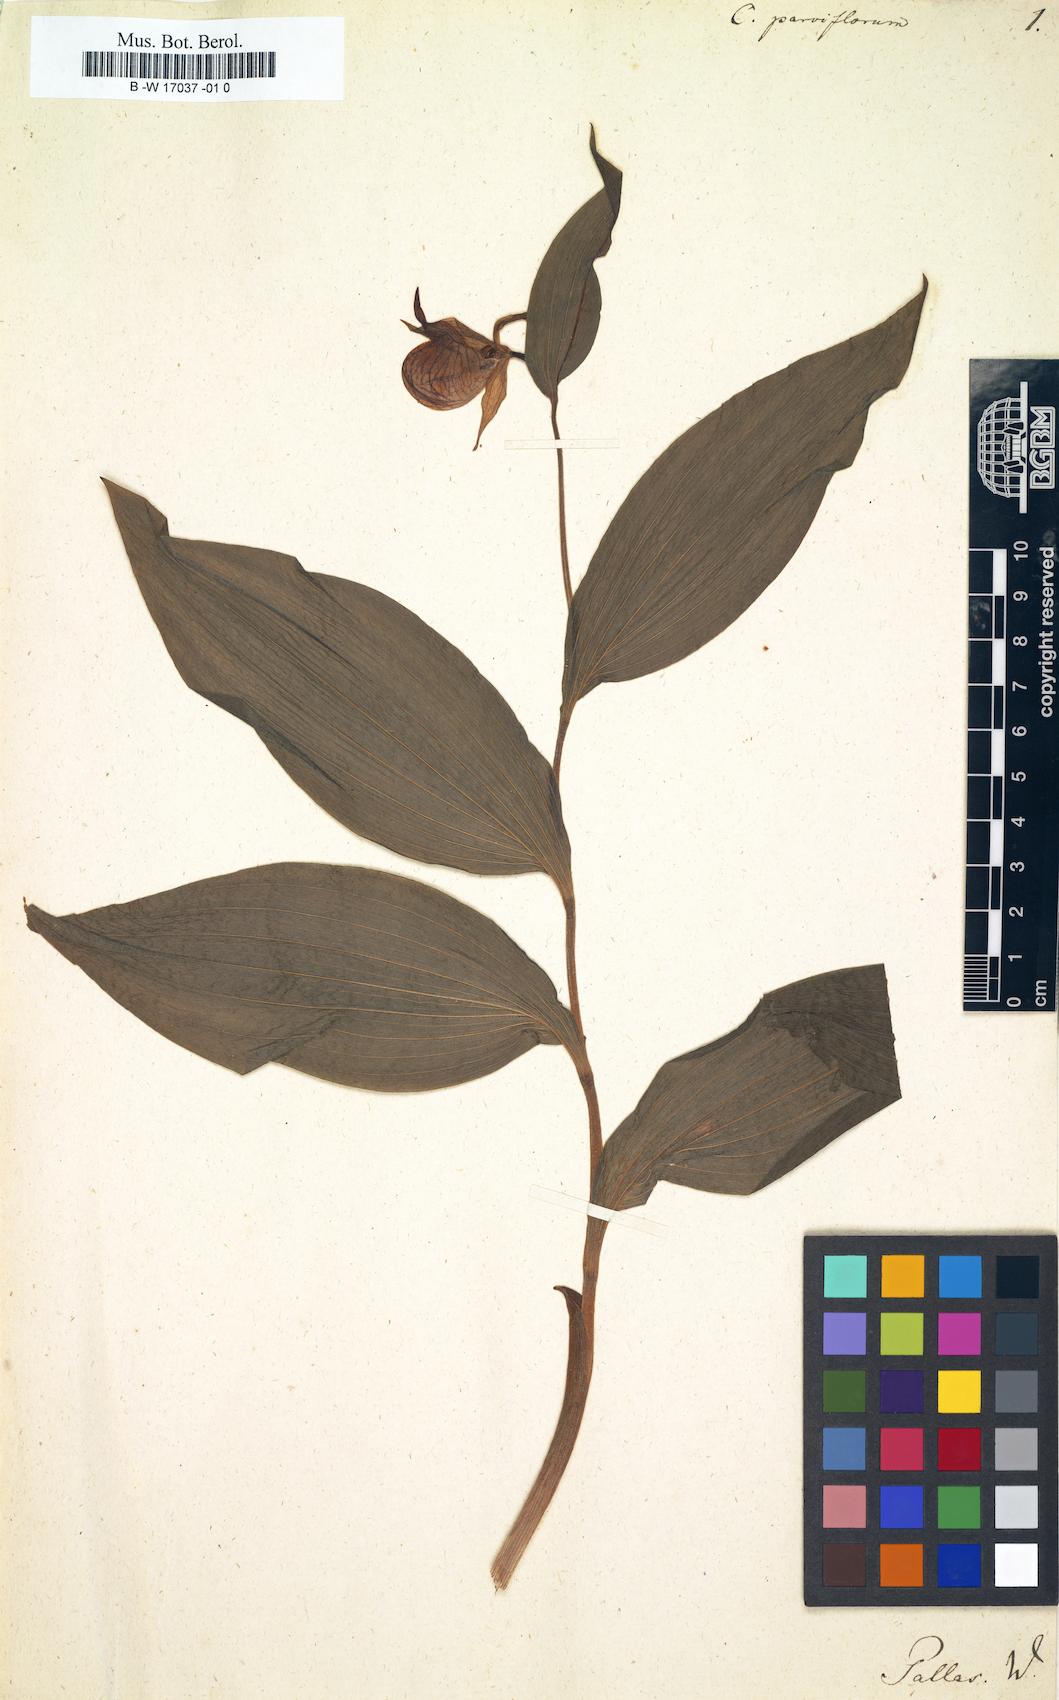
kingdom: Plantae
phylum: Tracheophyta
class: Liliopsida
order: Asparagales
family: Orchidaceae
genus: Cypripedium
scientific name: Cypripedium parviflorum
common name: American yellow lady's-slipper
